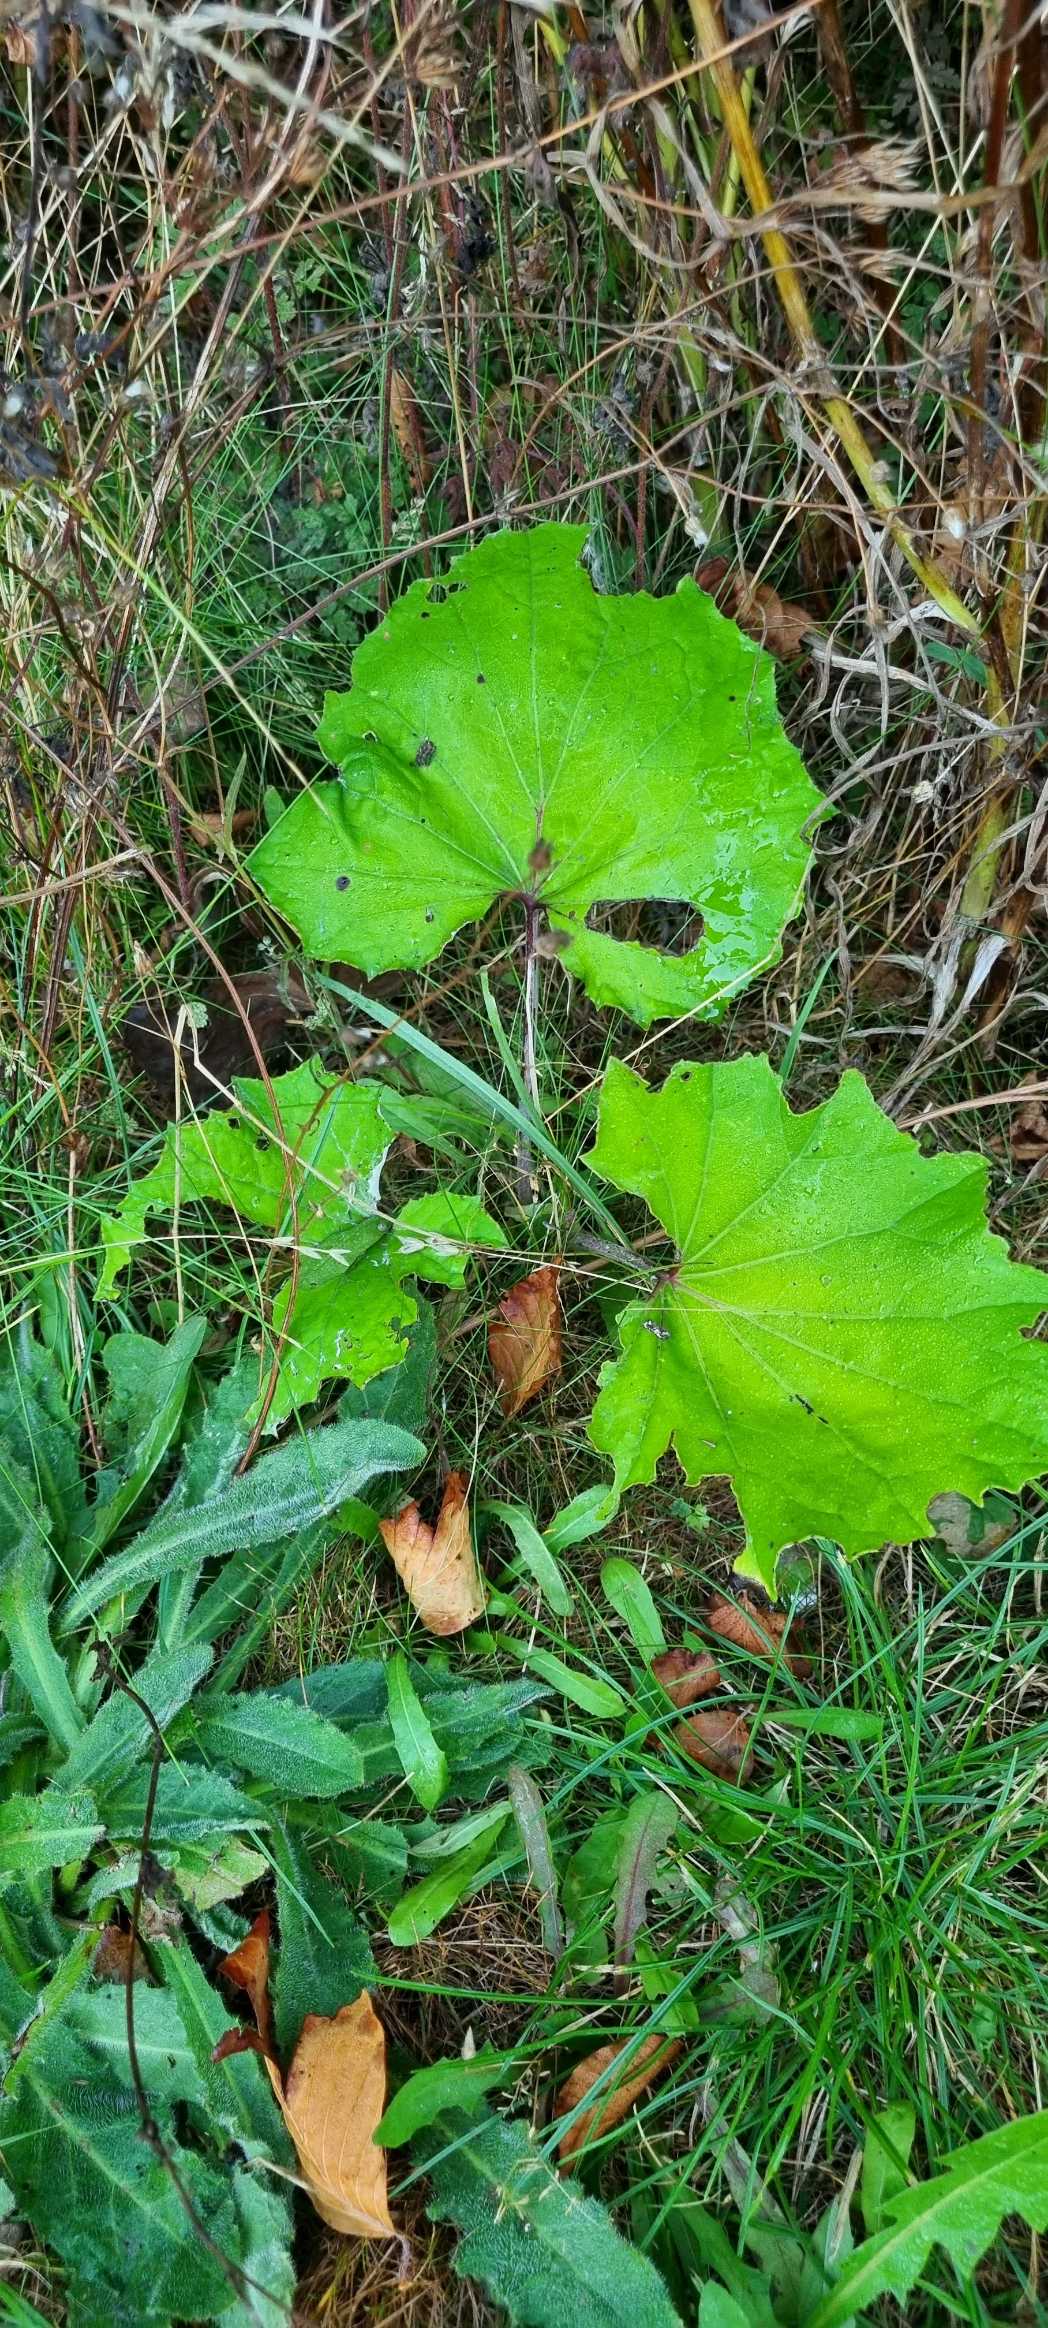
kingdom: Plantae
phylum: Tracheophyta
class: Magnoliopsida
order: Asterales
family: Asteraceae
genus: Tussilago
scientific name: Tussilago farfara
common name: Følfod
